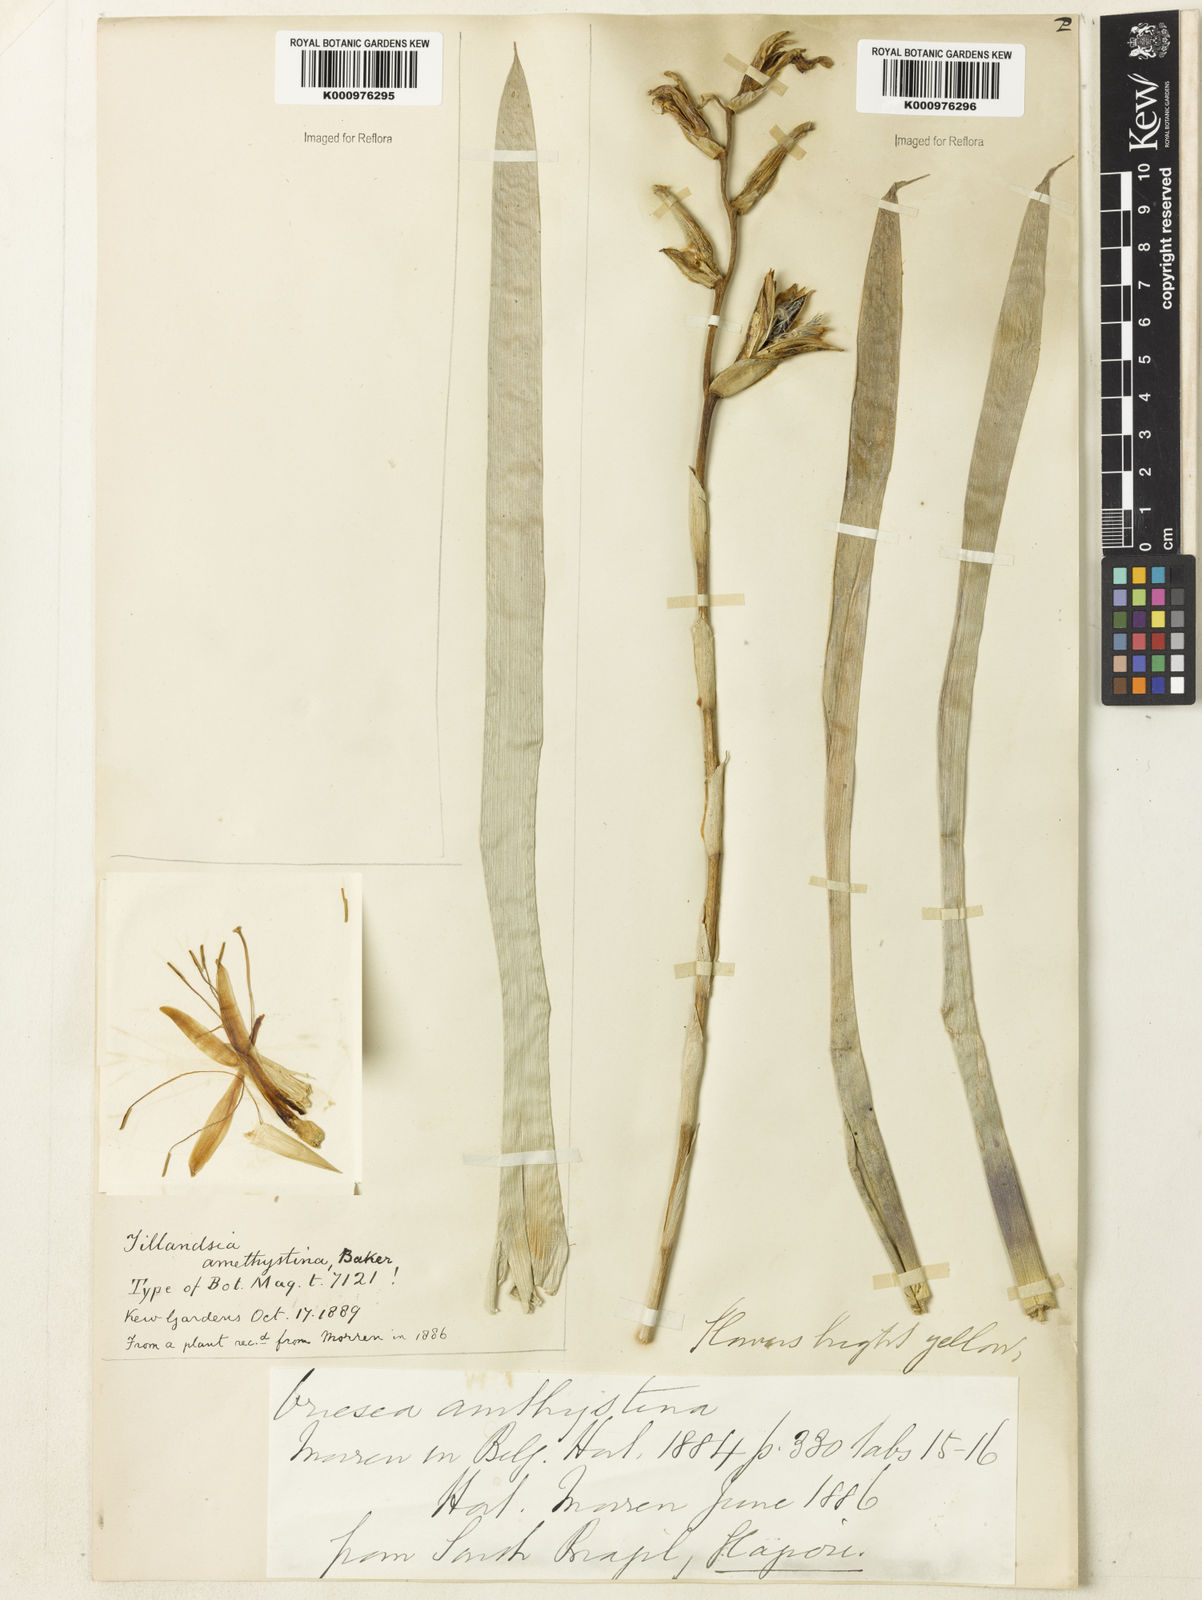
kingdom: Plantae
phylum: Tracheophyta
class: Liliopsida
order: Poales
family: Bromeliaceae
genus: Vriesea
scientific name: Vriesea amethystina
